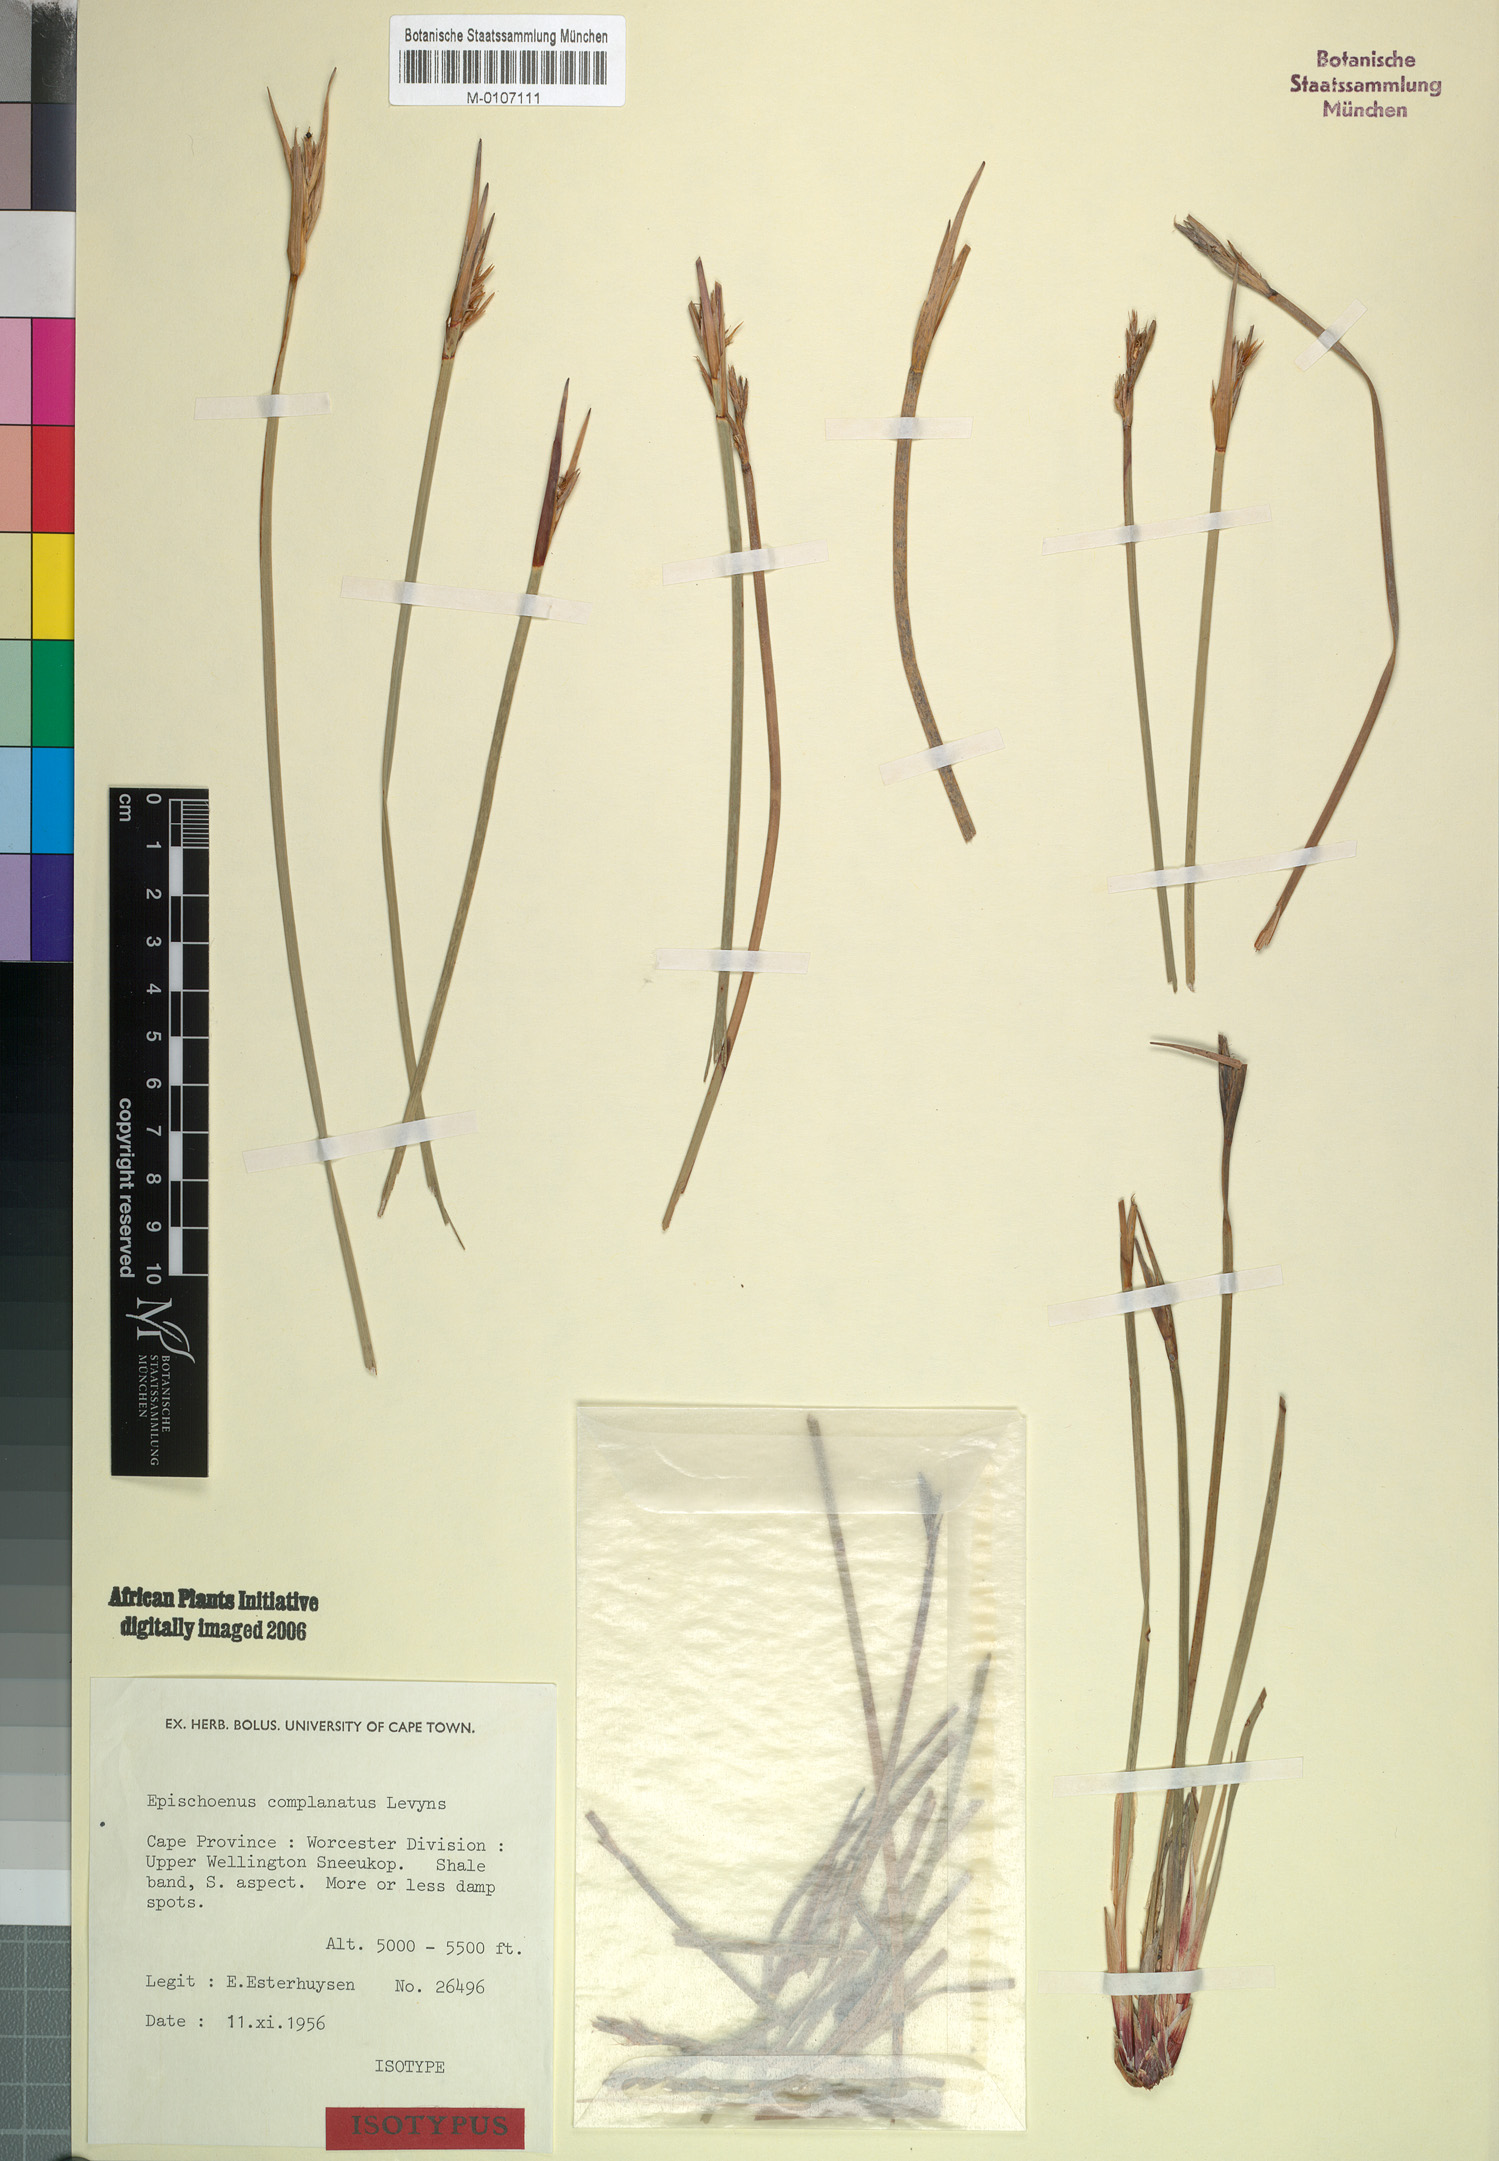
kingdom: Plantae
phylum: Tracheophyta
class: Liliopsida
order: Poales
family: Cyperaceae
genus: Schoenus
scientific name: Schoenus complanatus
